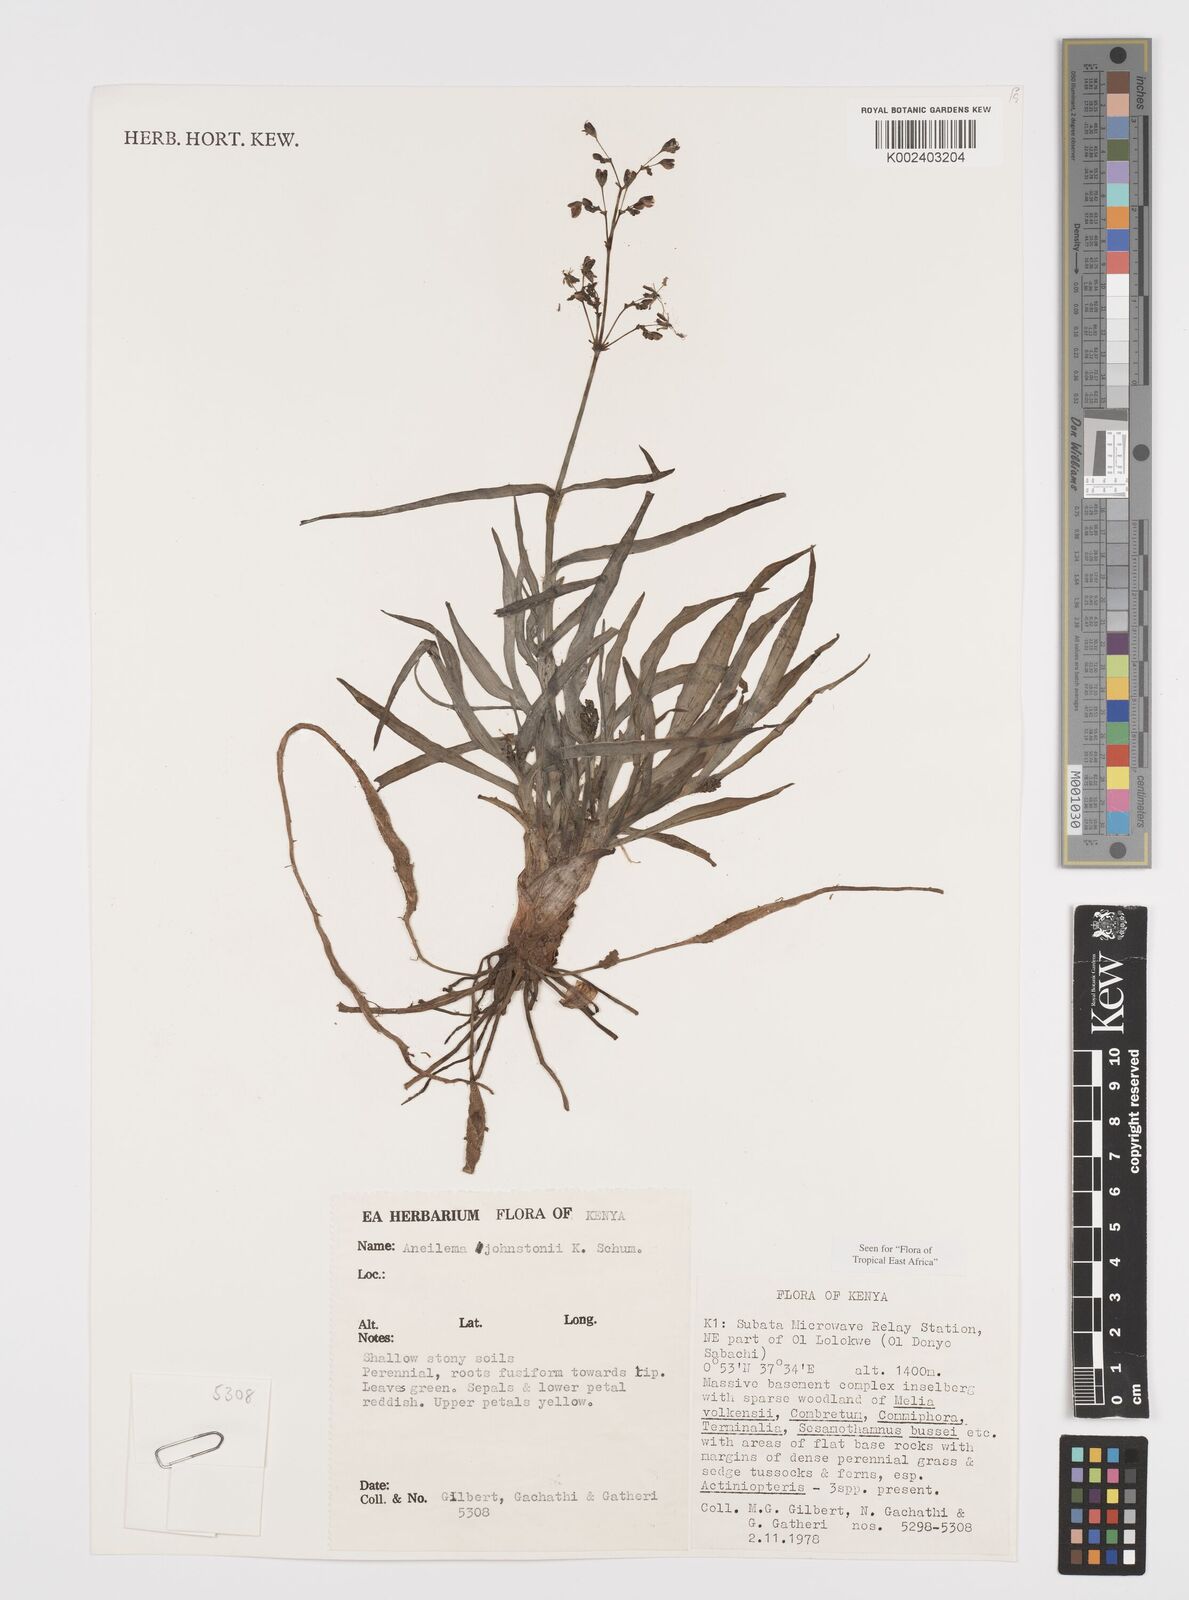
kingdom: Plantae
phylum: Tracheophyta
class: Liliopsida
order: Commelinales
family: Commelinaceae
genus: Aneilema
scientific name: Aneilema johnstonii
